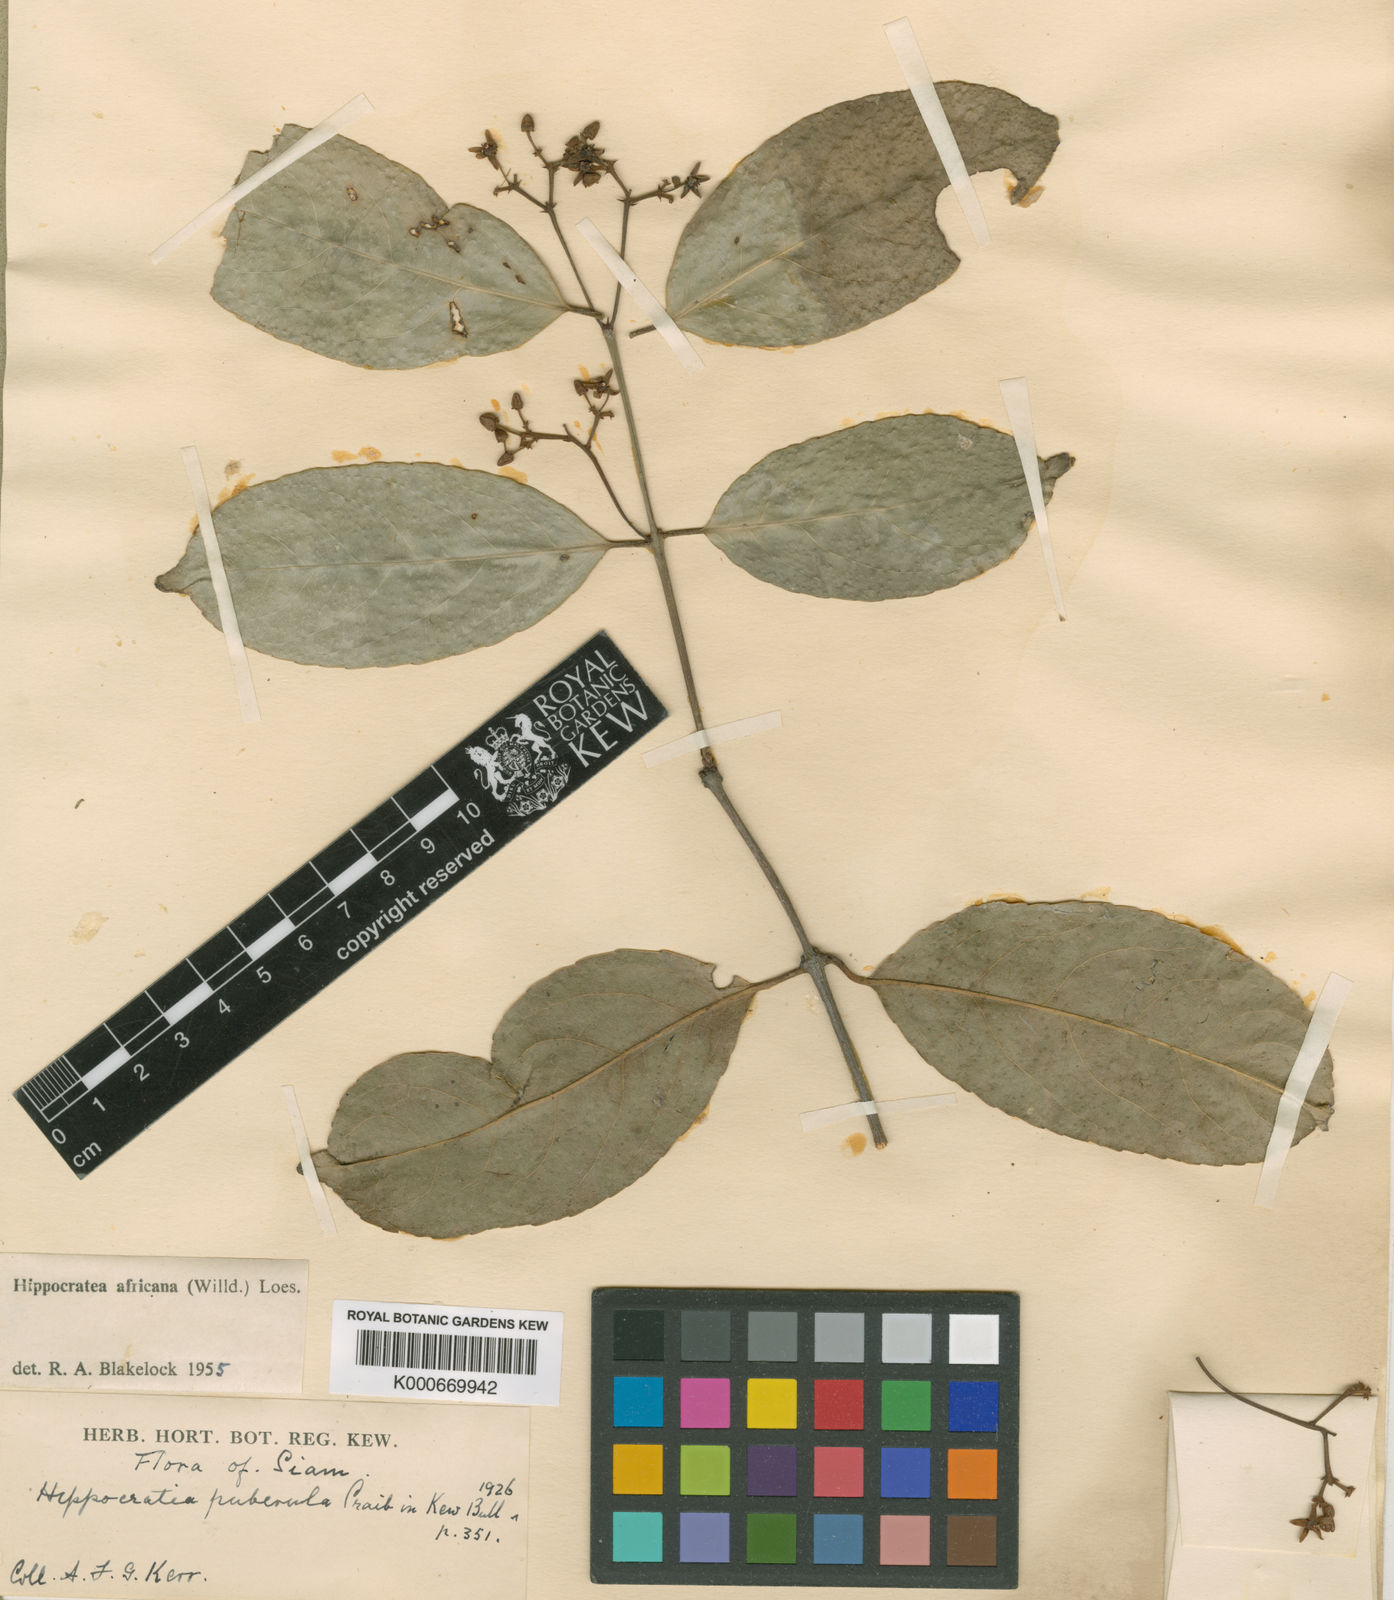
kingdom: Plantae
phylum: Tracheophyta
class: Magnoliopsida
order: Celastrales
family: Celastraceae
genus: Loeseneriella
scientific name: Loeseneriella
